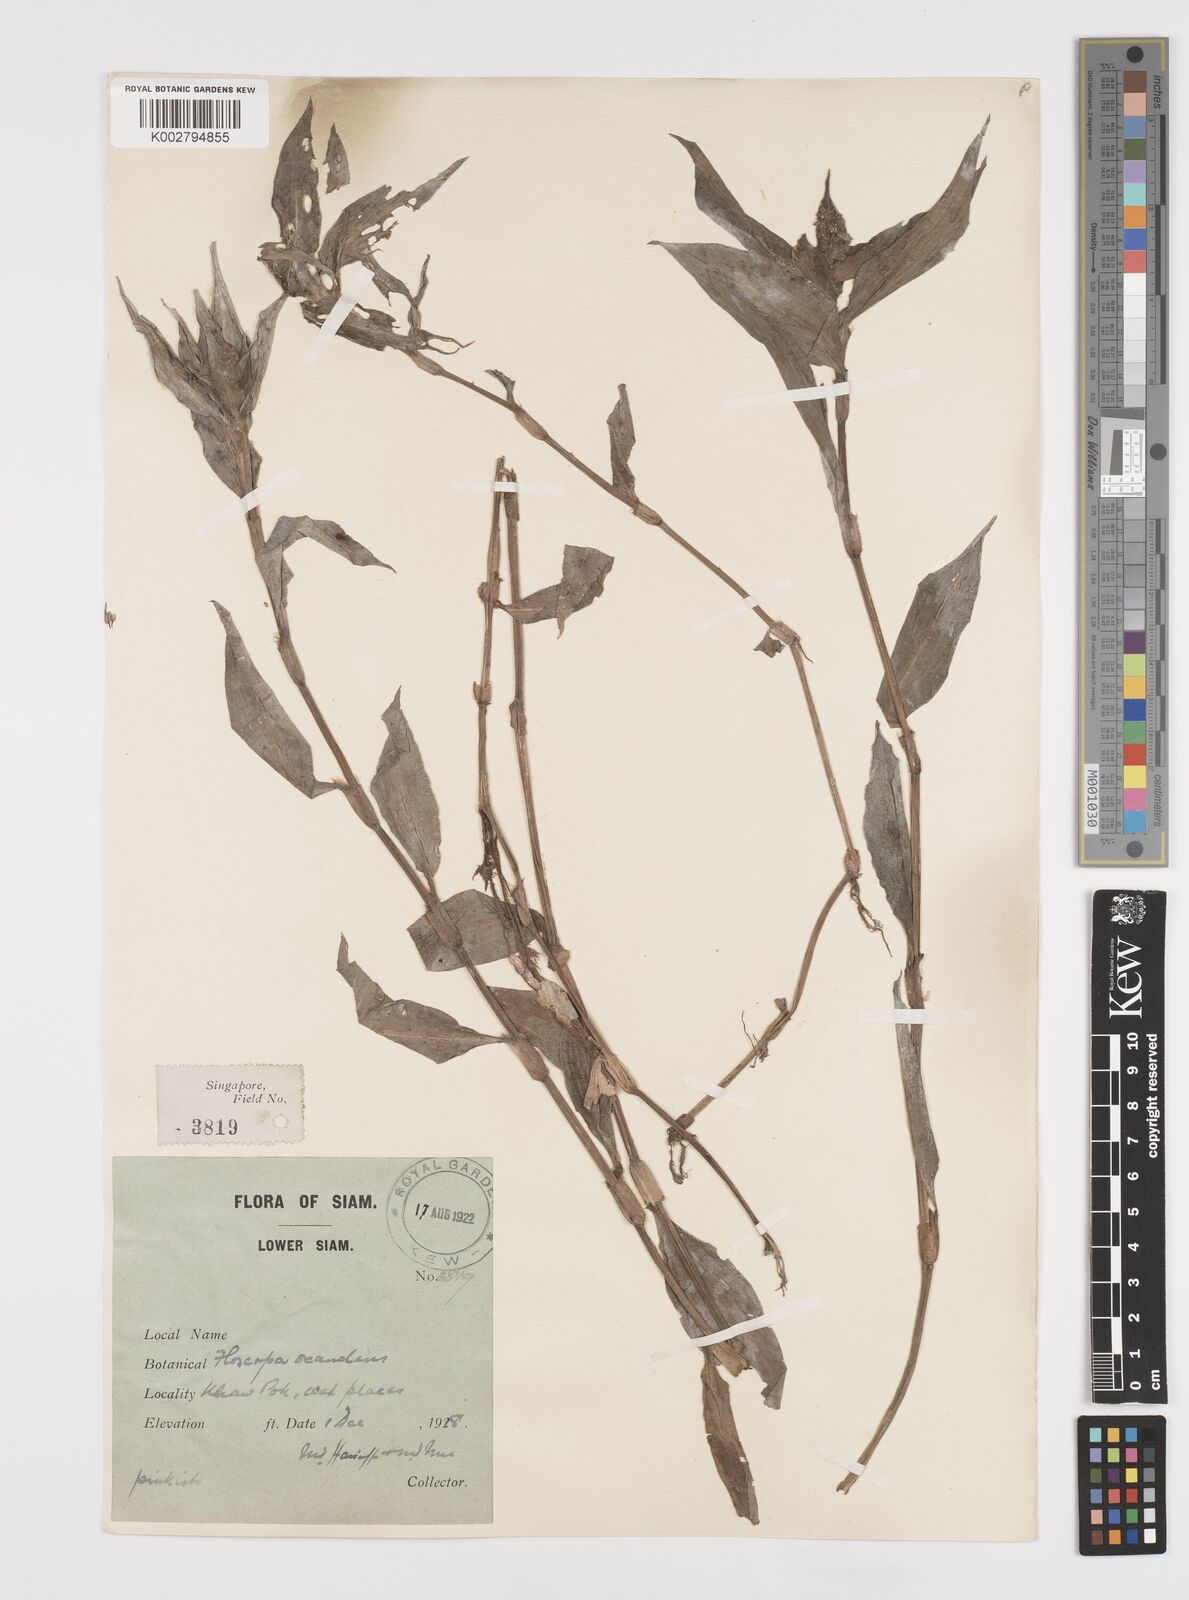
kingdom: Plantae
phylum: Tracheophyta
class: Liliopsida
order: Commelinales
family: Commelinaceae
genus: Floscopa
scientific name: Floscopa scandens
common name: Climbing flower cup
